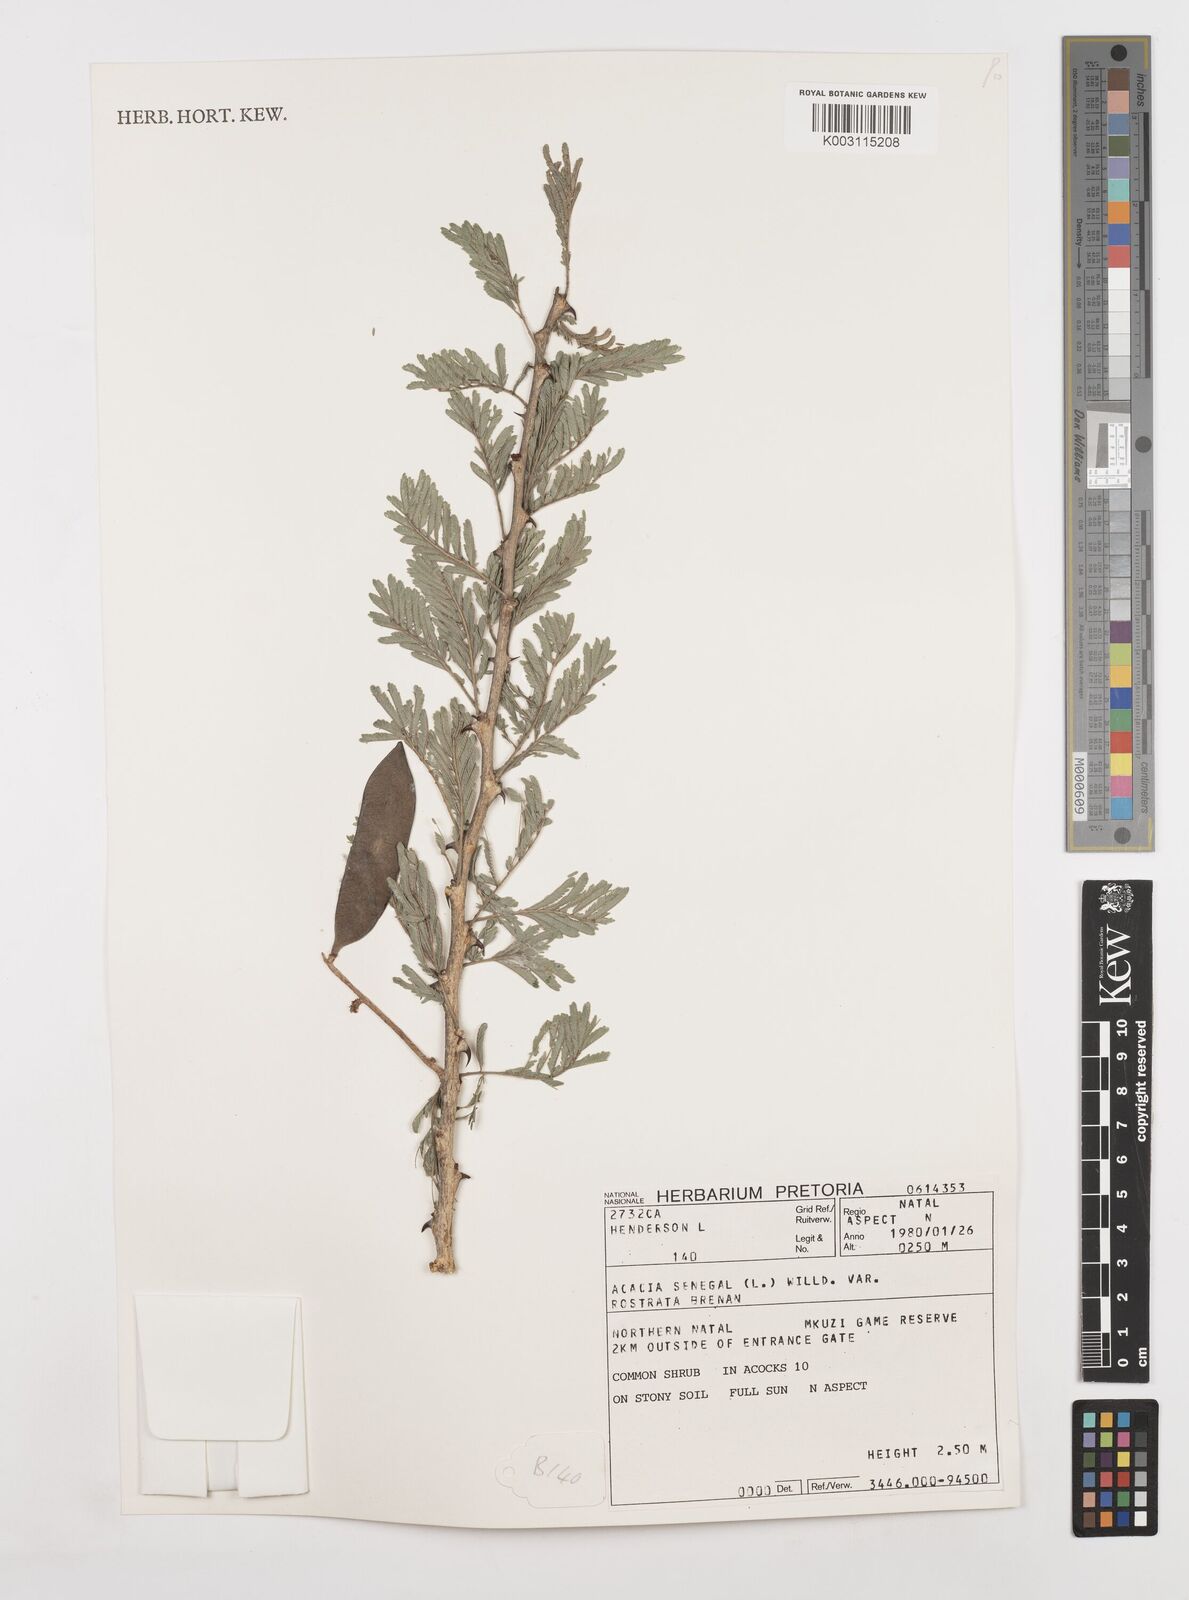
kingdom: Plantae
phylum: Tracheophyta
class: Magnoliopsida
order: Fabales
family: Fabaceae
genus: Senegalia
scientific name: Senegalia senegal
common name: Senegal-gum
